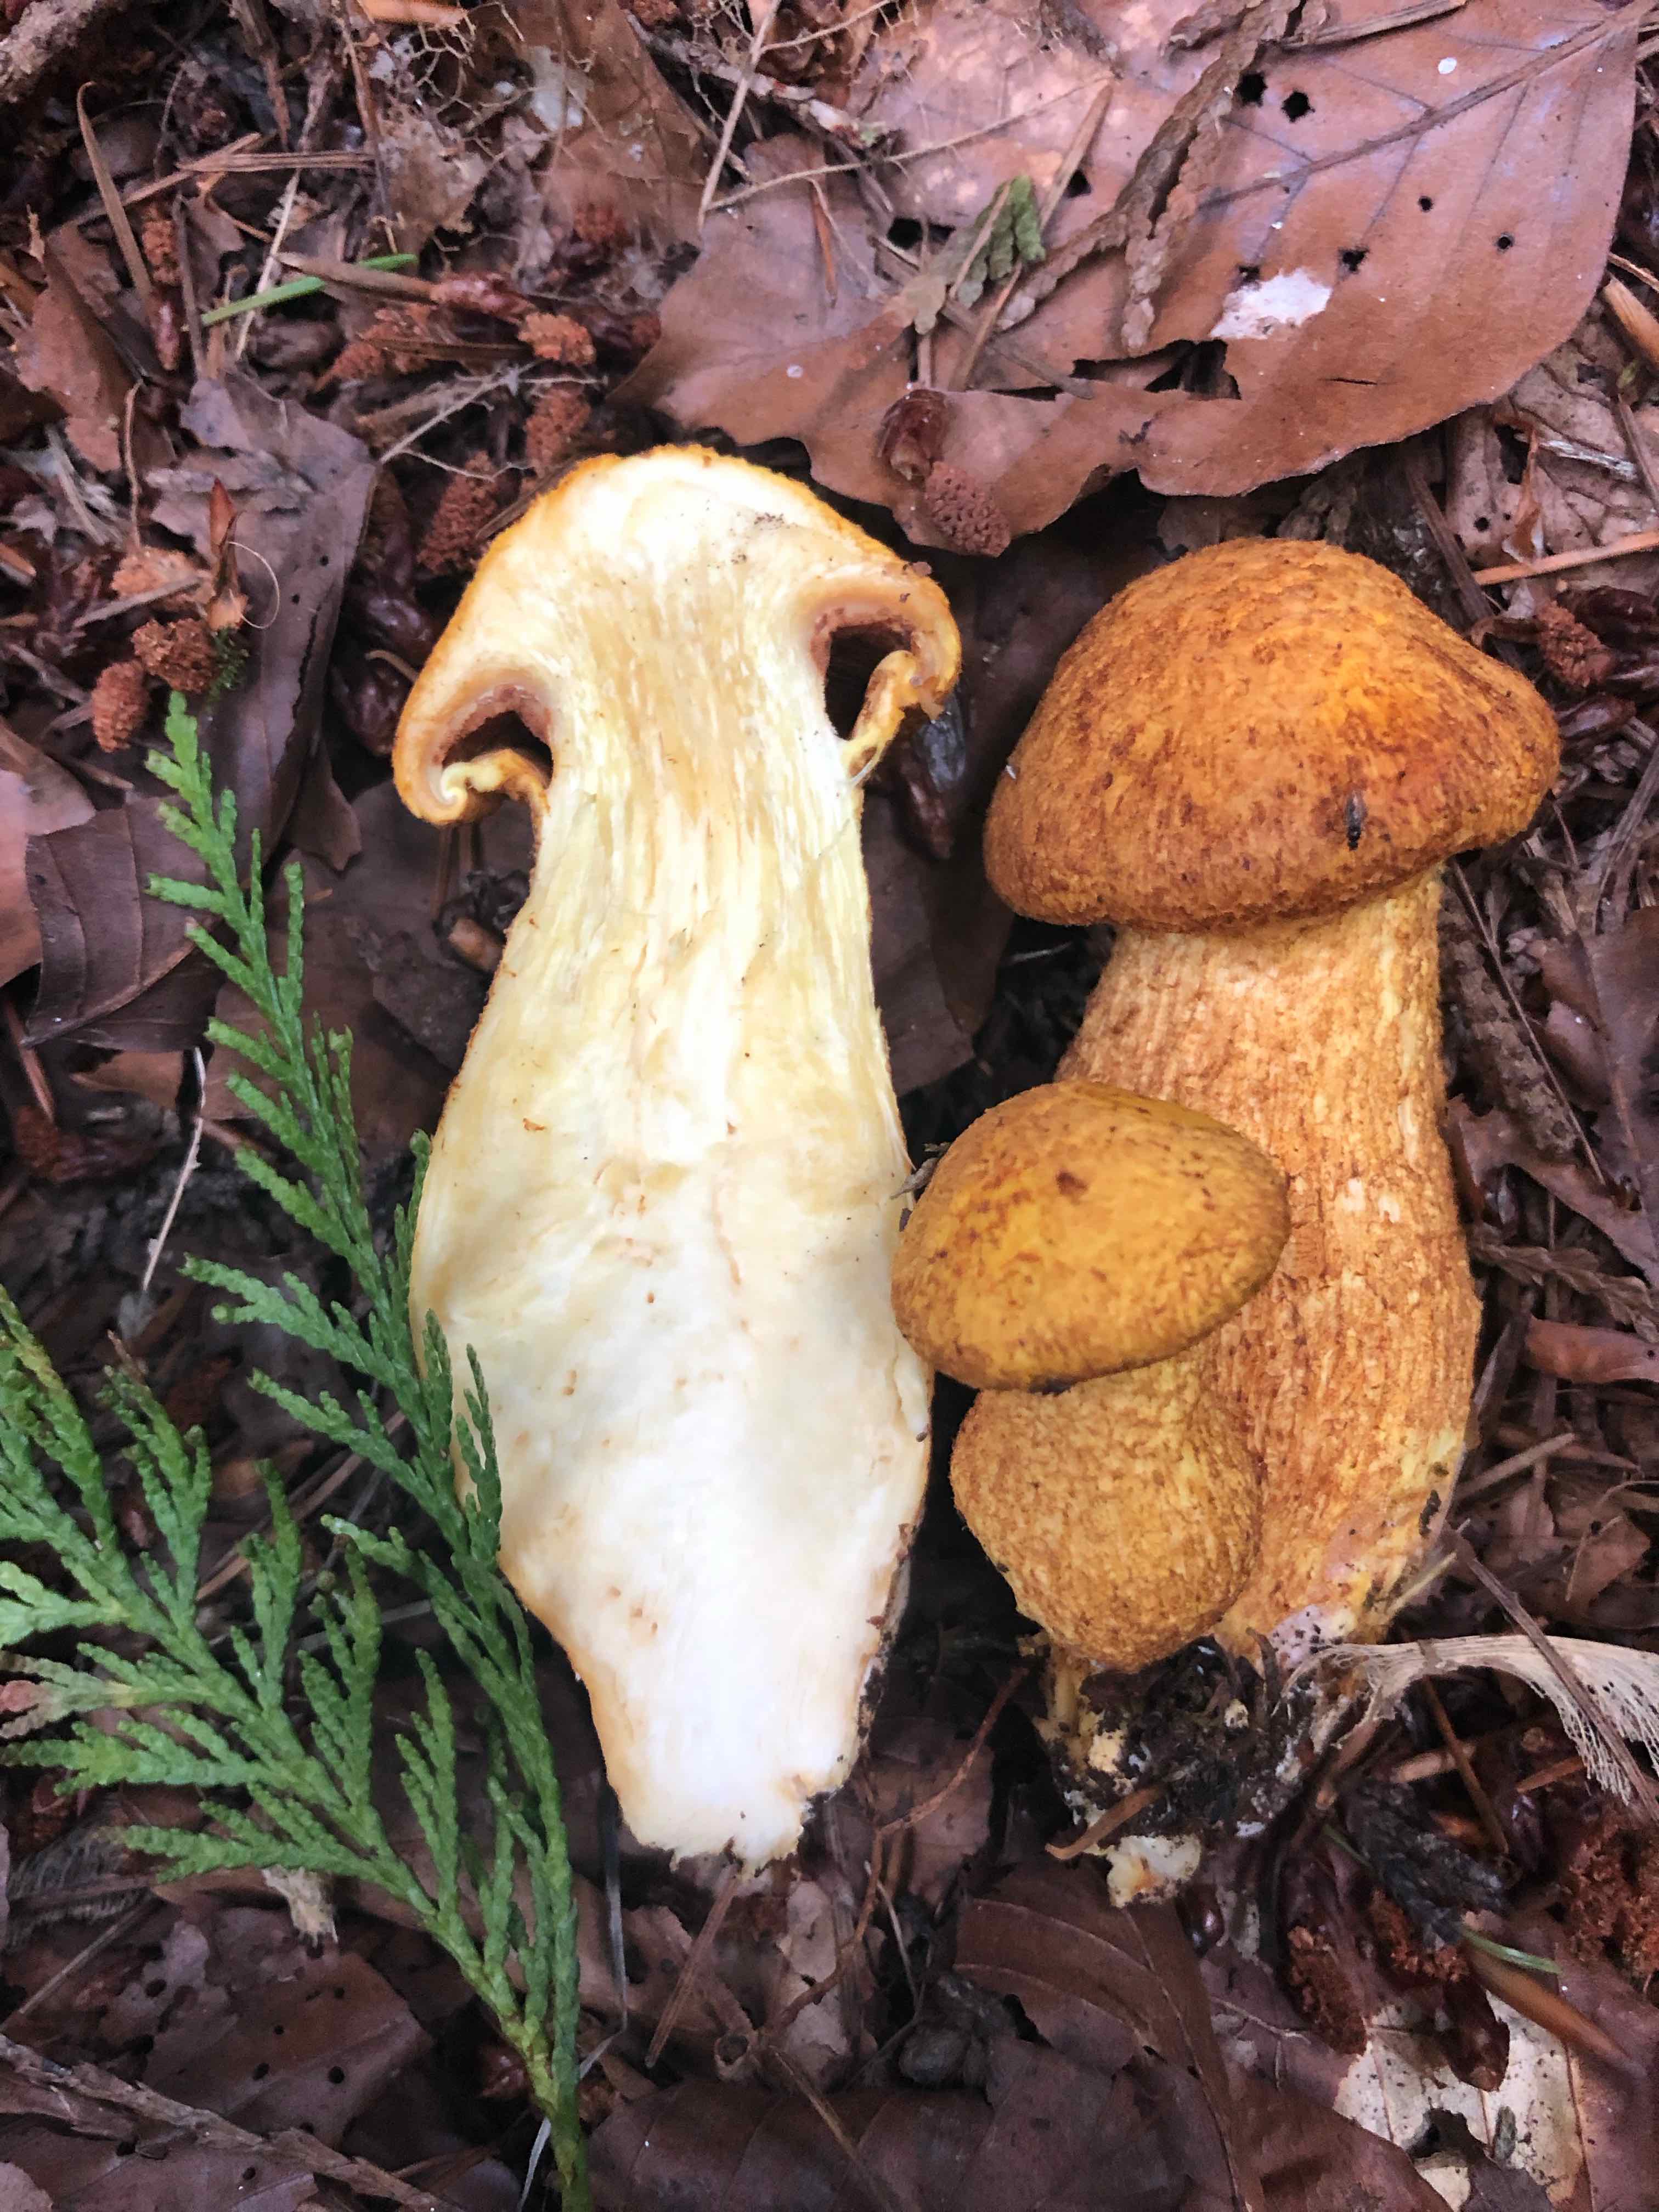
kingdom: Fungi
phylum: Basidiomycota
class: Agaricomycetes
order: Agaricales
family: Hymenogastraceae
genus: Gymnopilus
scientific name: Gymnopilus spectabilis
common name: fibret flammehat
